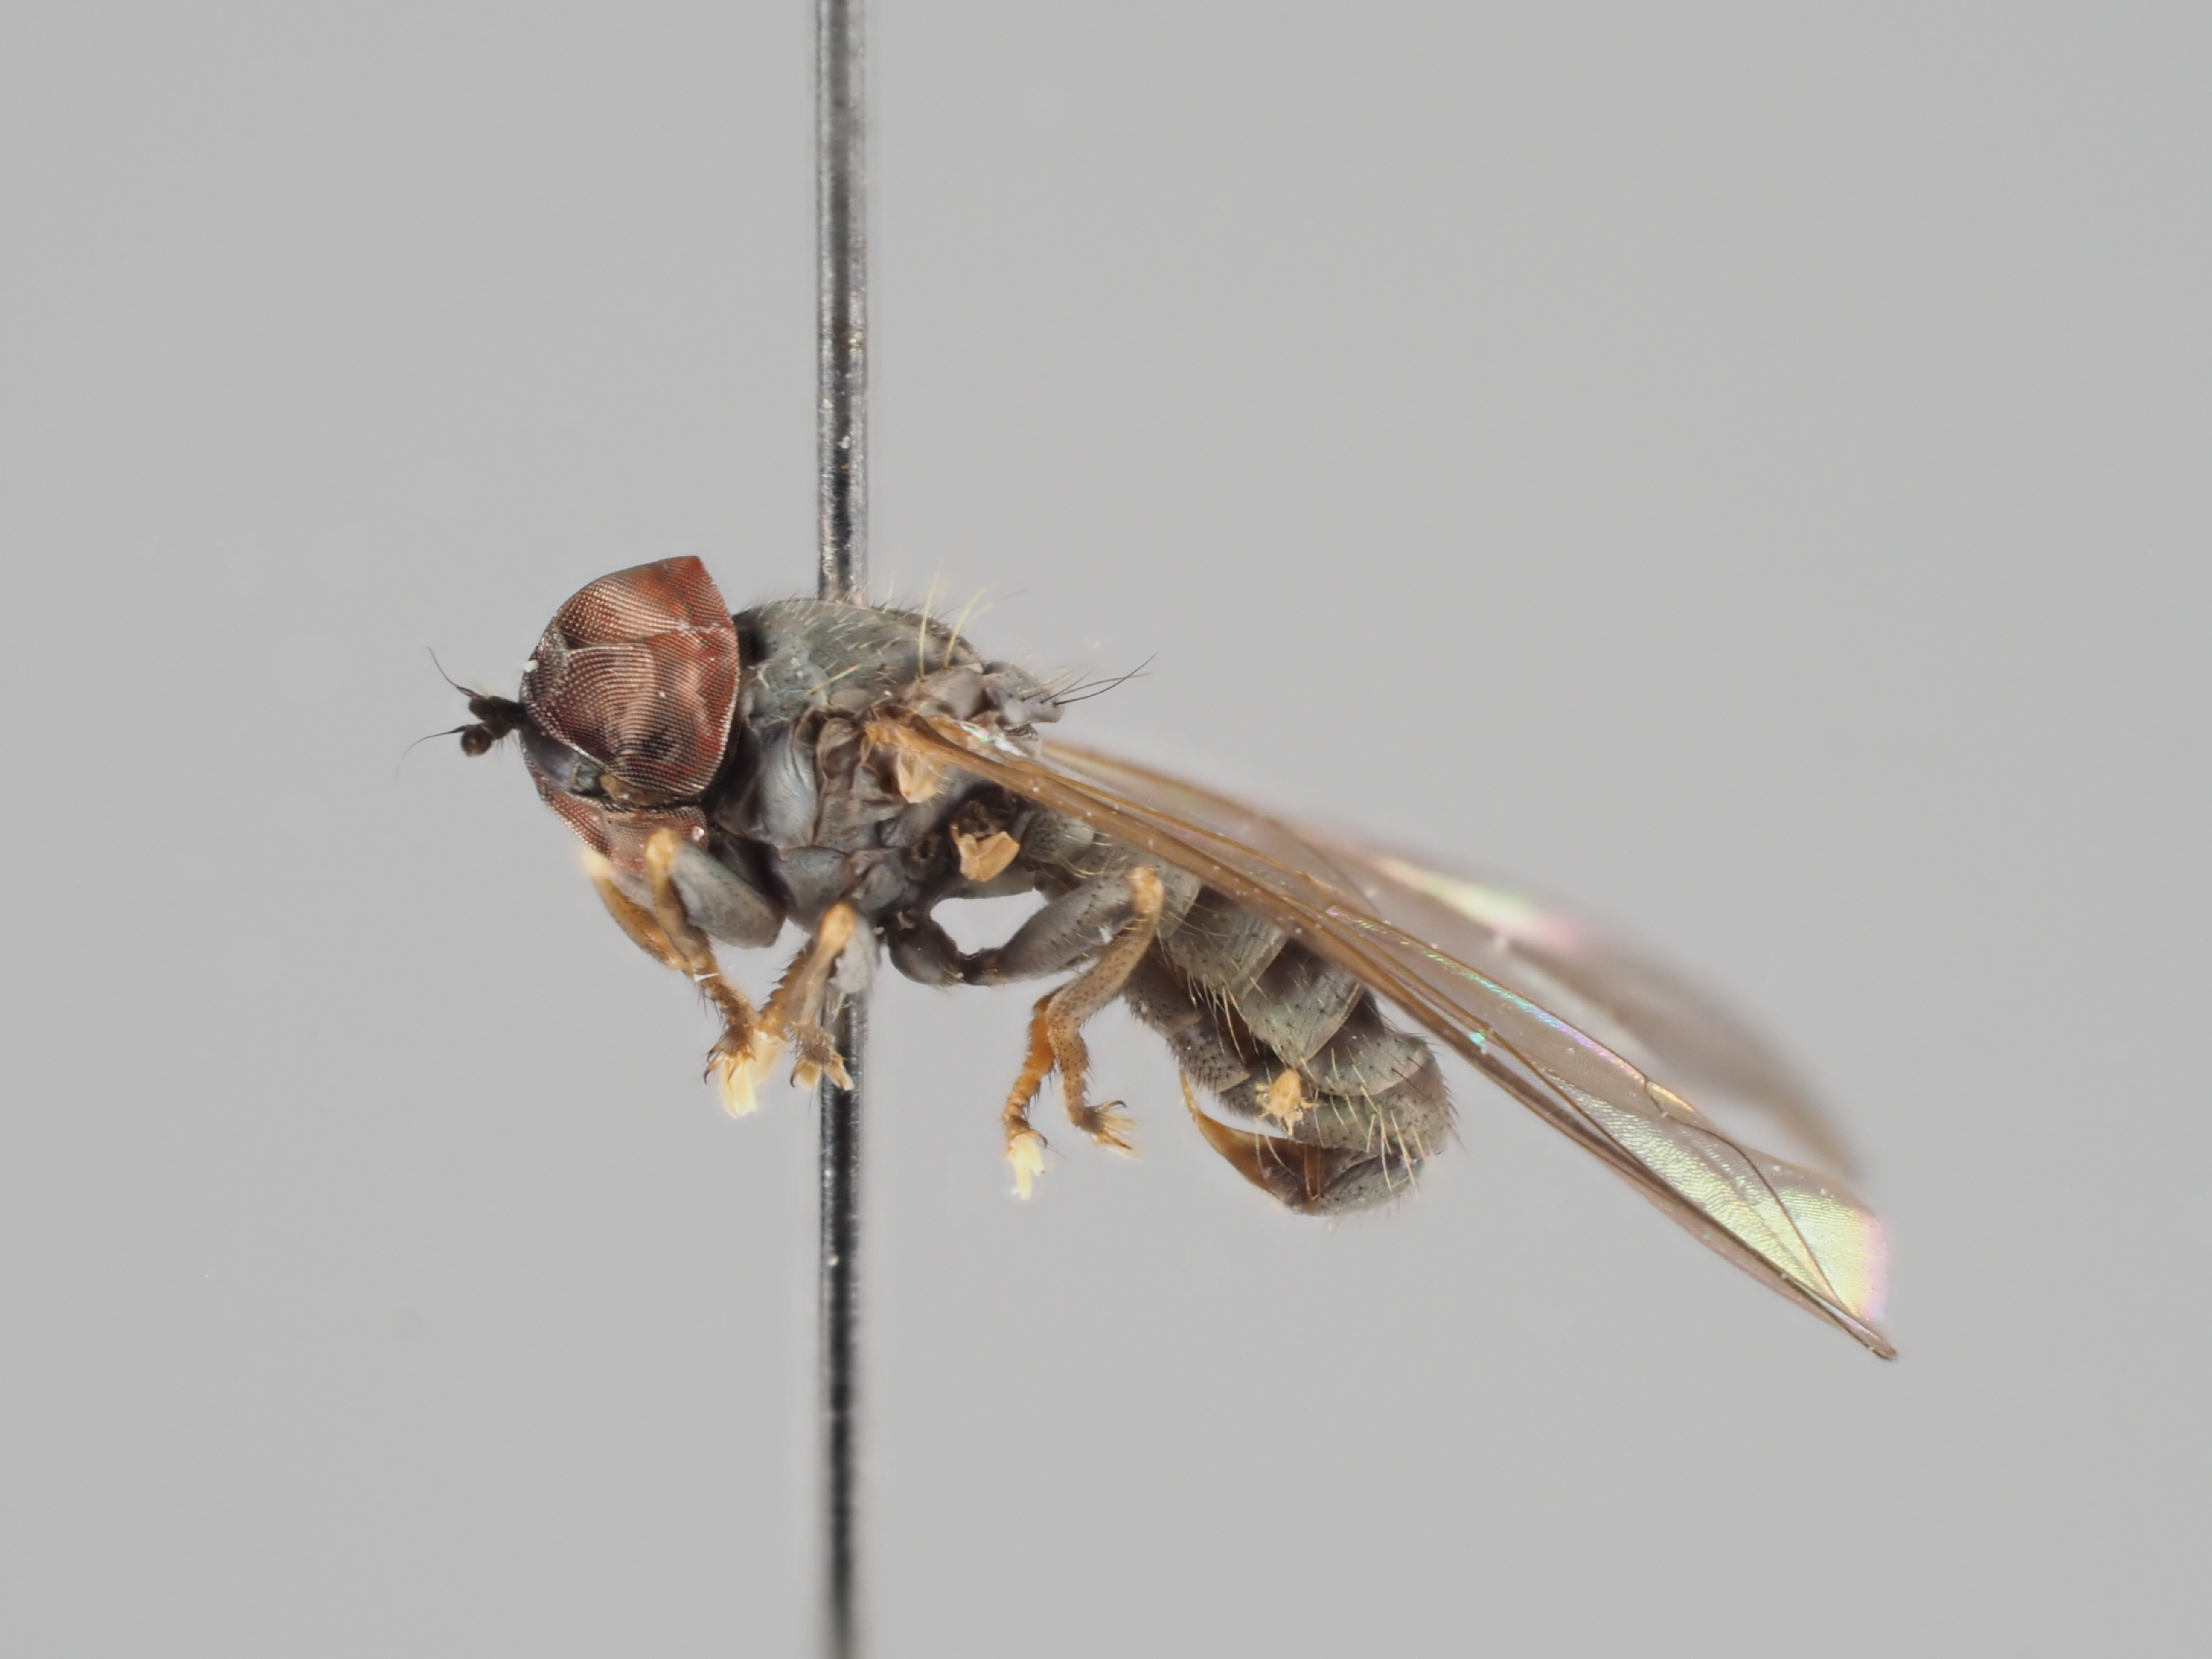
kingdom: Animalia
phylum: Arthropoda
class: Insecta
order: Diptera
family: Pipunculidae
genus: Jassidophaga
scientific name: Jassidophaga villosa
